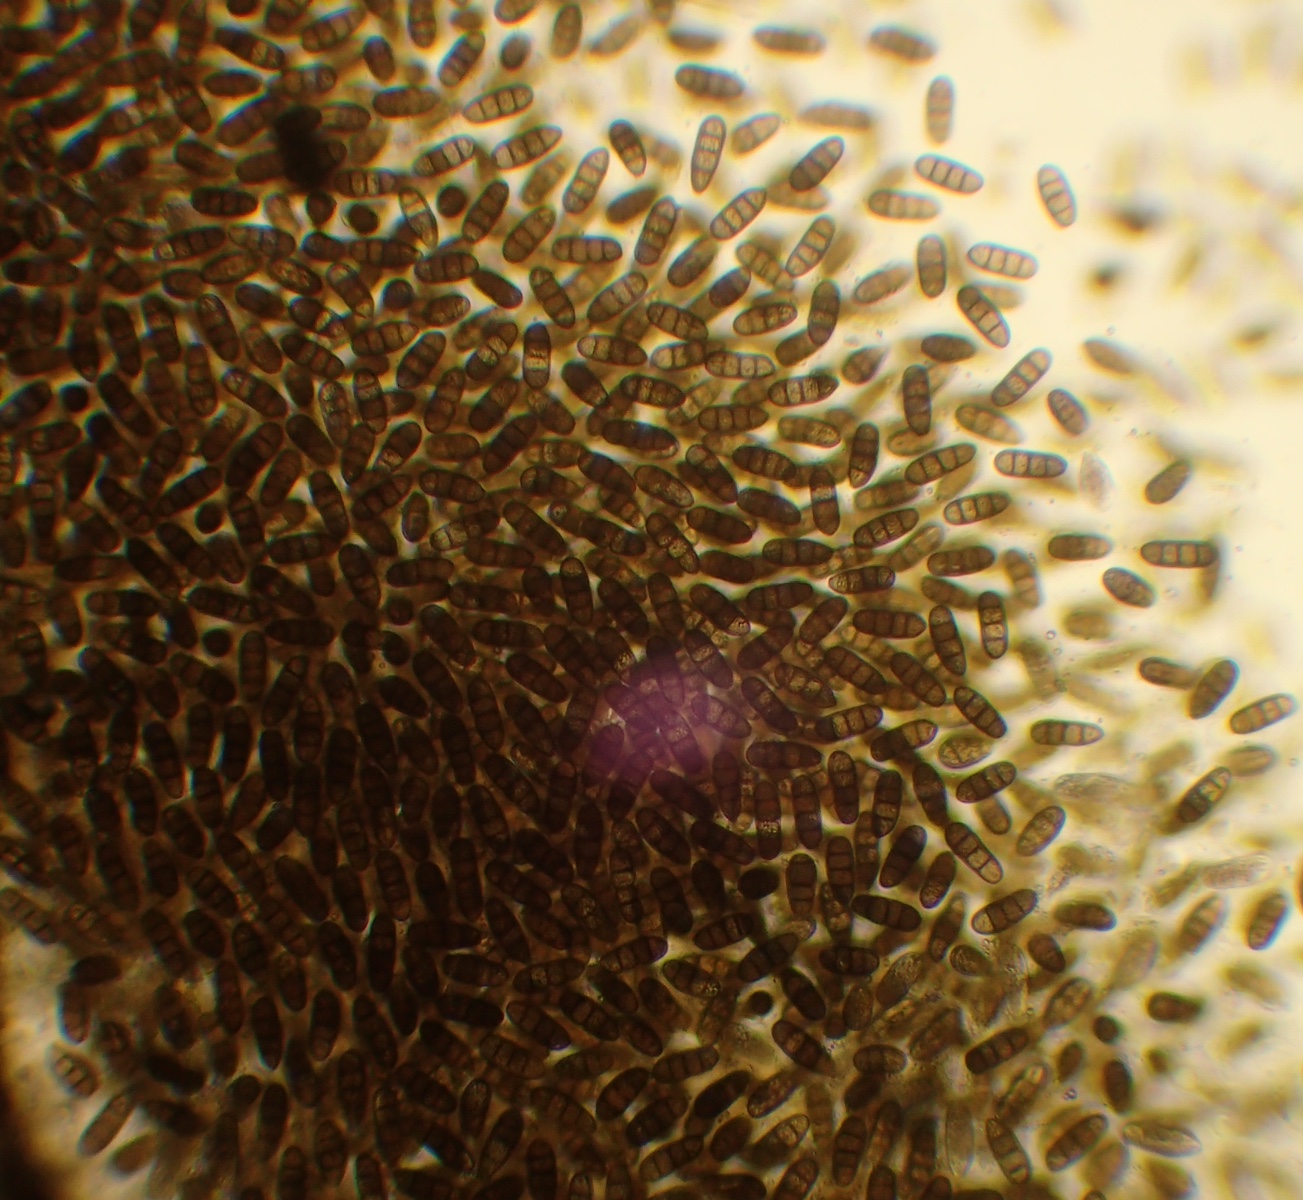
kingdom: Fungi
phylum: Ascomycota
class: Dothideomycetes
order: Pleosporales
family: Macrodiplodiopsidaceae
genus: Macrodiplodiopsis
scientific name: Macrodiplodiopsis desmazieri
